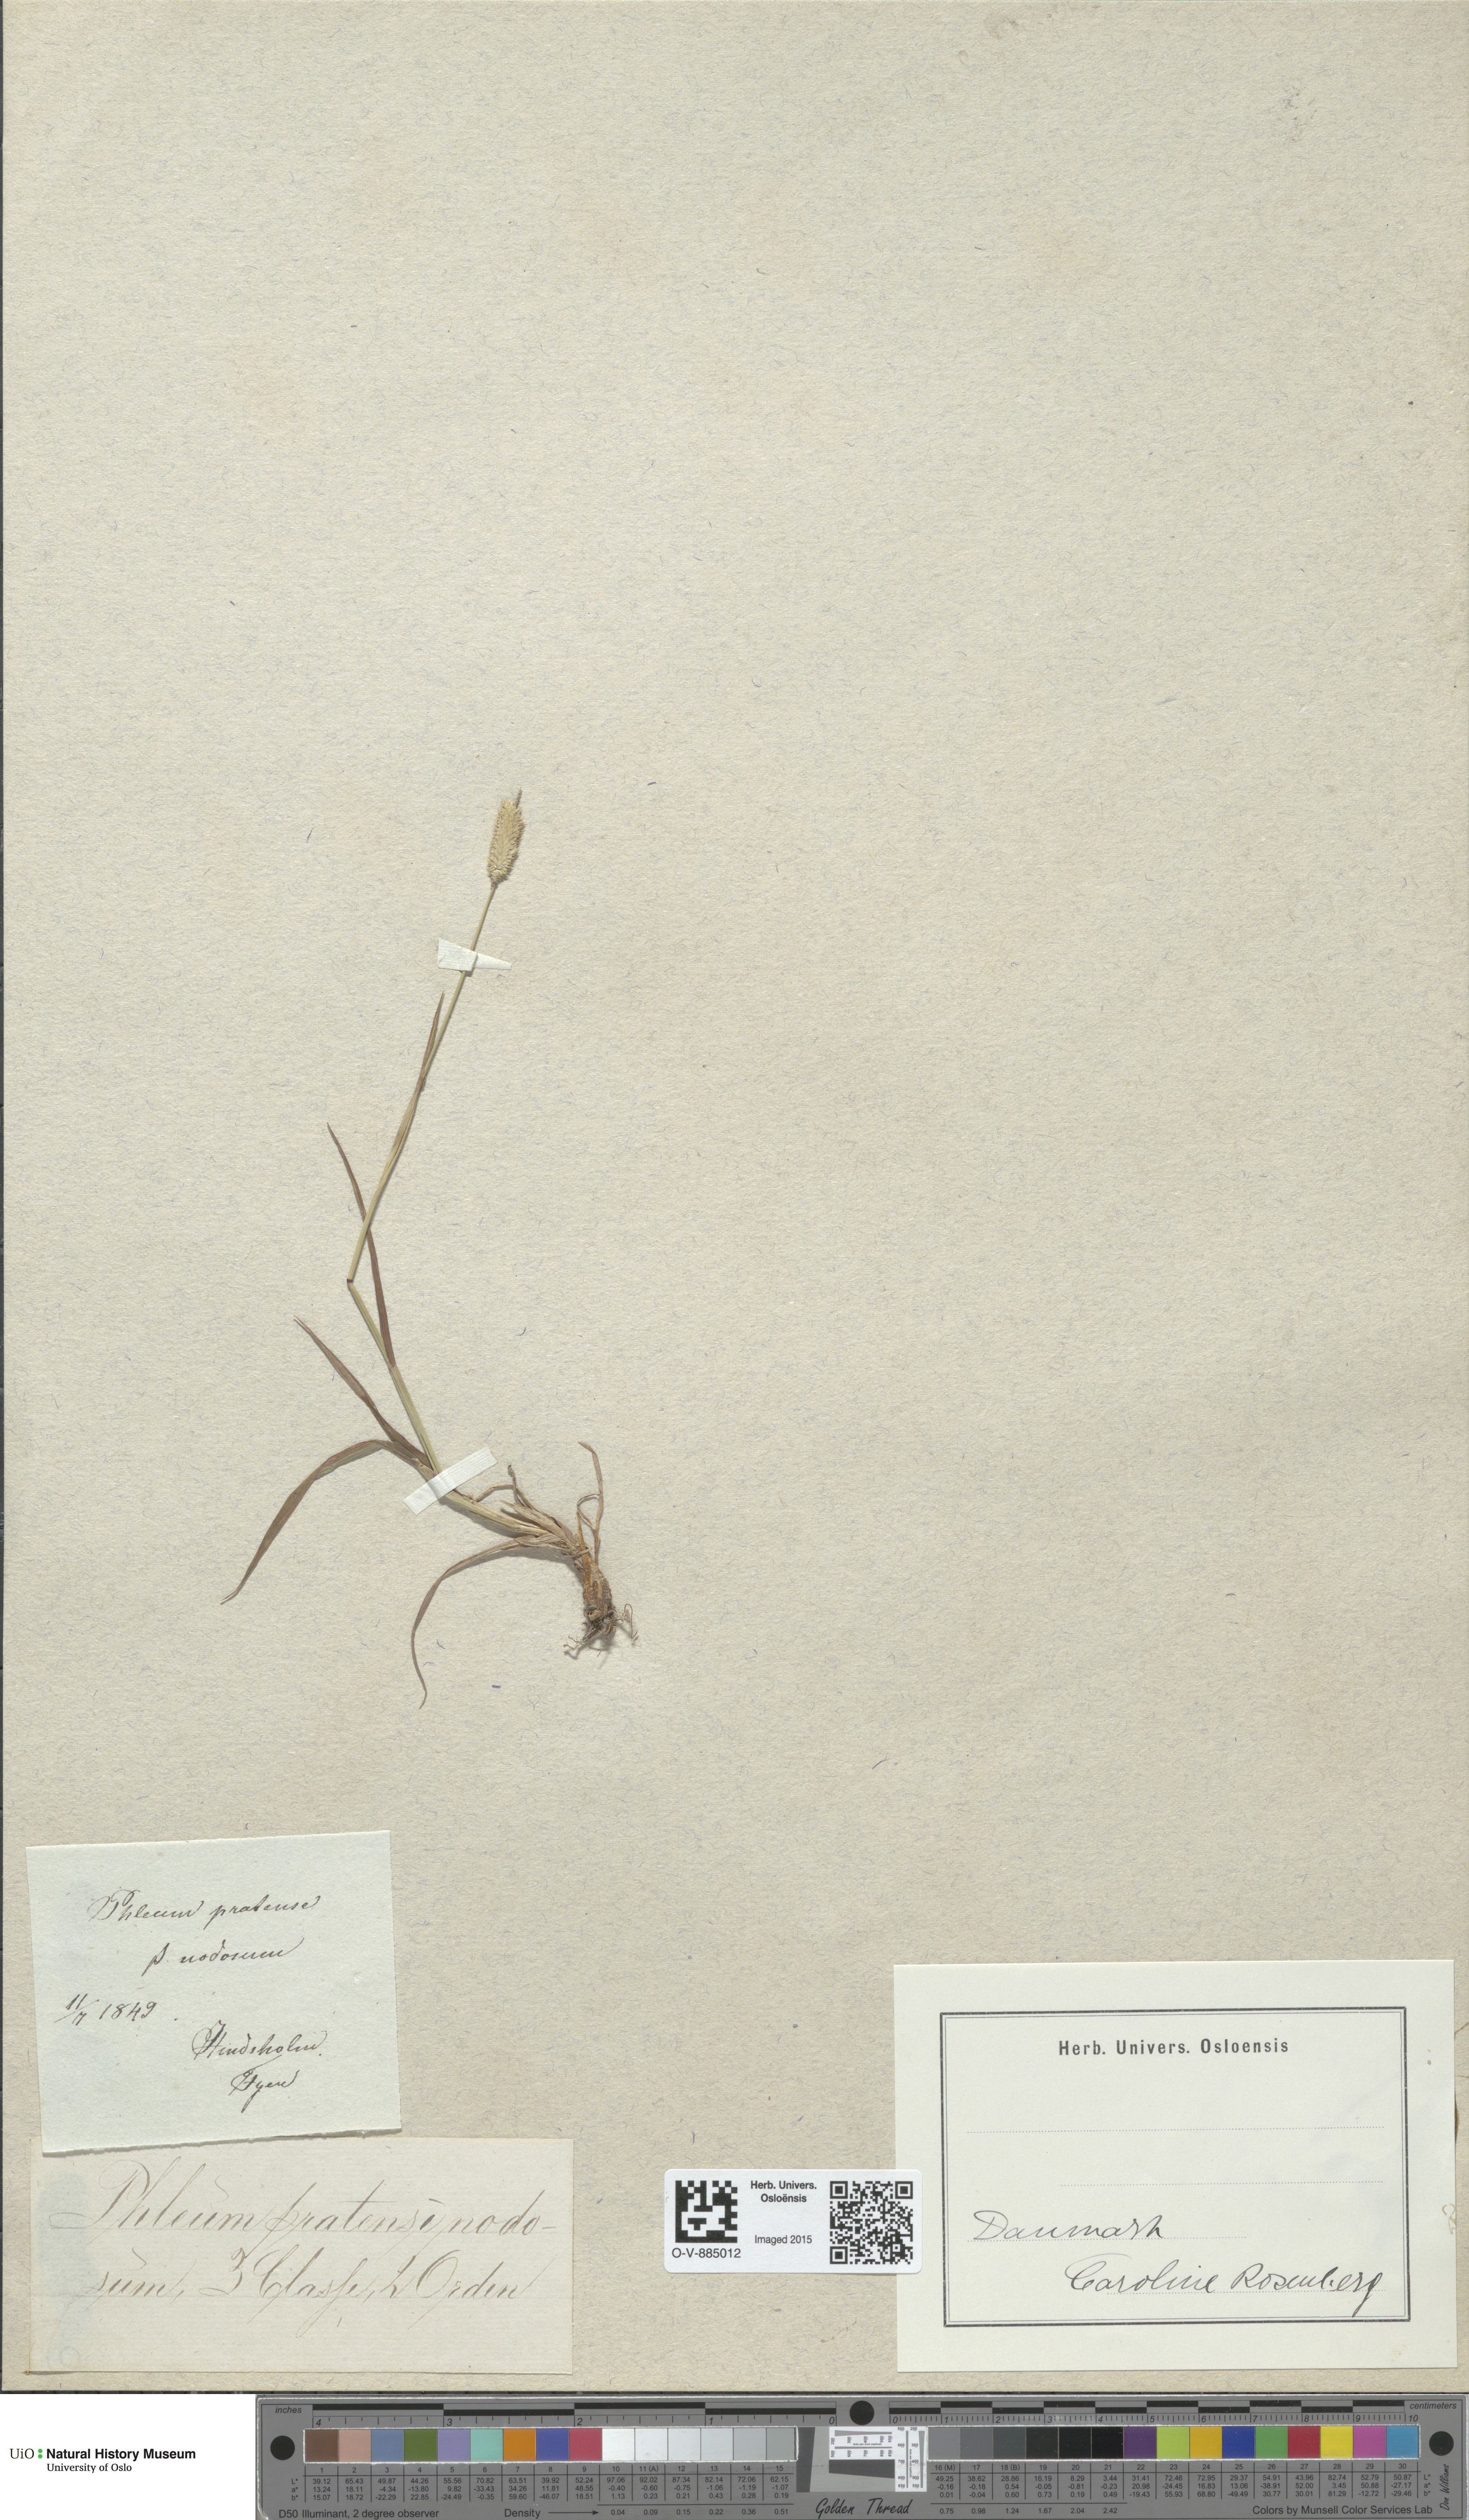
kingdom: Plantae
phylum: Tracheophyta
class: Liliopsida
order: Poales
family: Poaceae
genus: Phleum
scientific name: Phleum pratense
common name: Timothy grass
